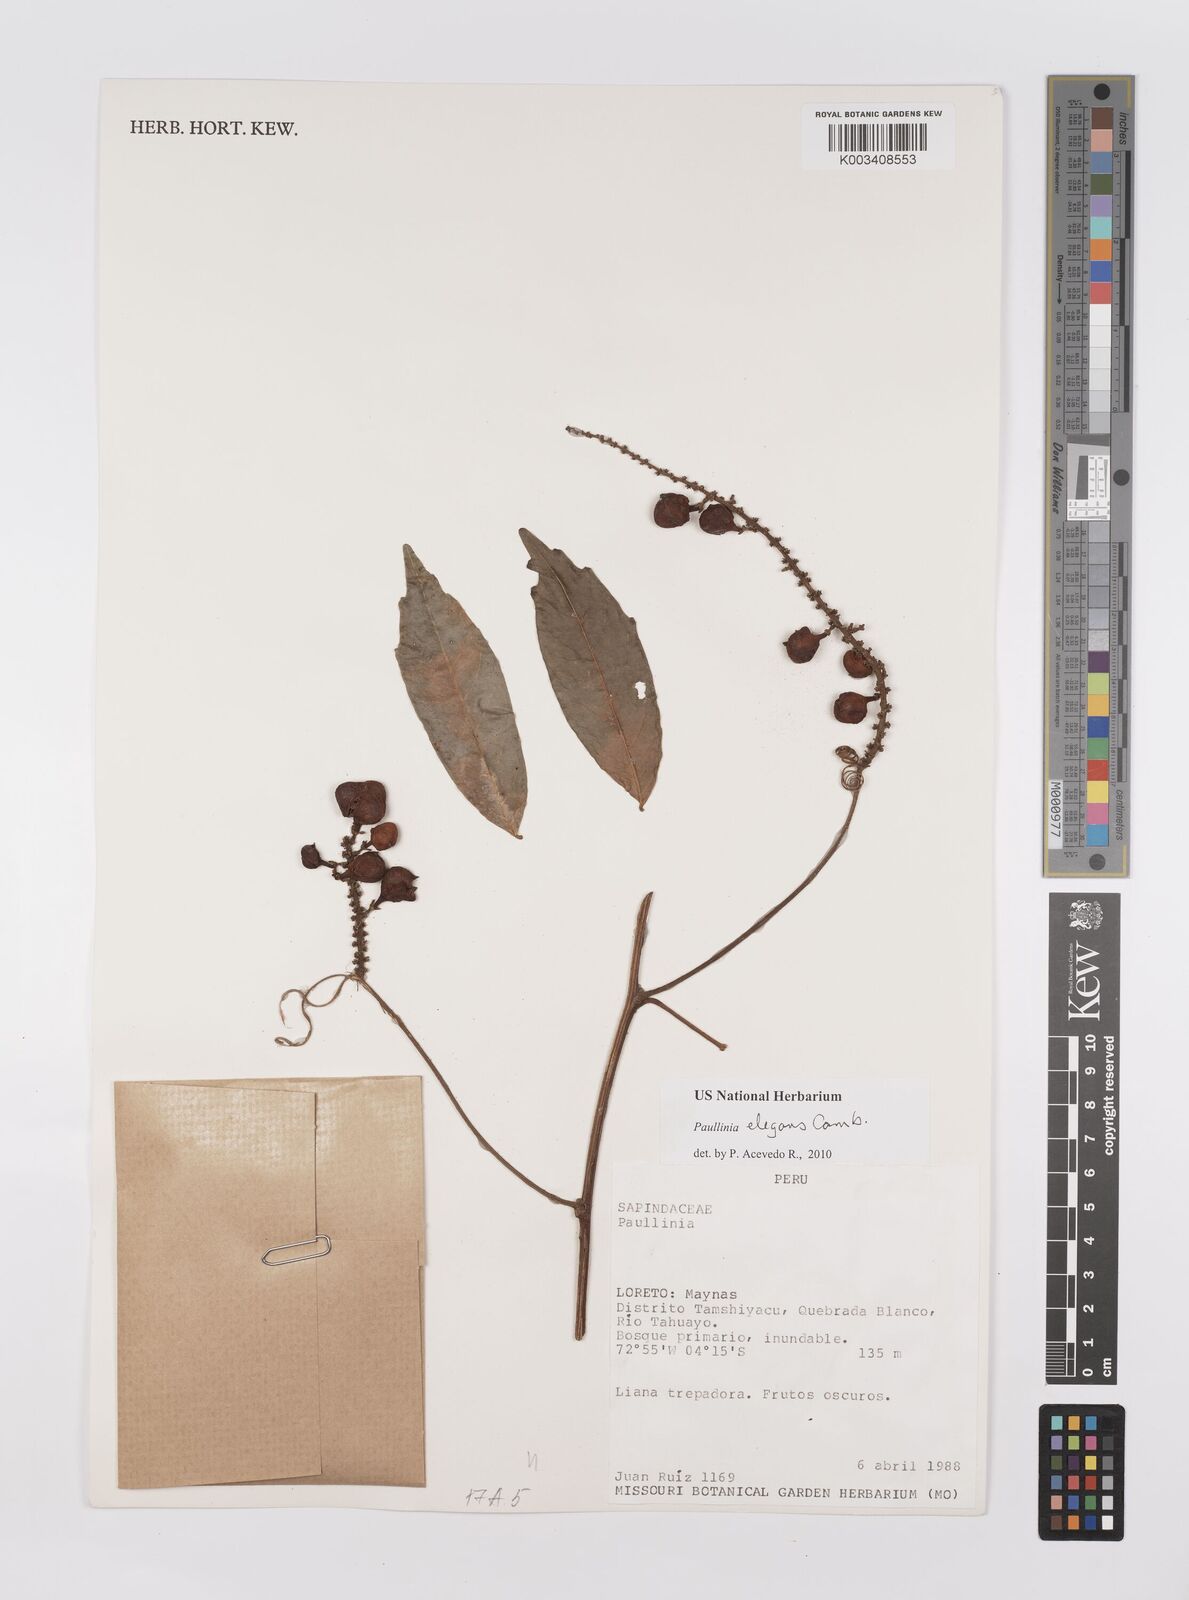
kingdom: Plantae
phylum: Tracheophyta
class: Magnoliopsida
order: Sapindales
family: Sapindaceae
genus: Paullinia
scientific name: Paullinia elegans
